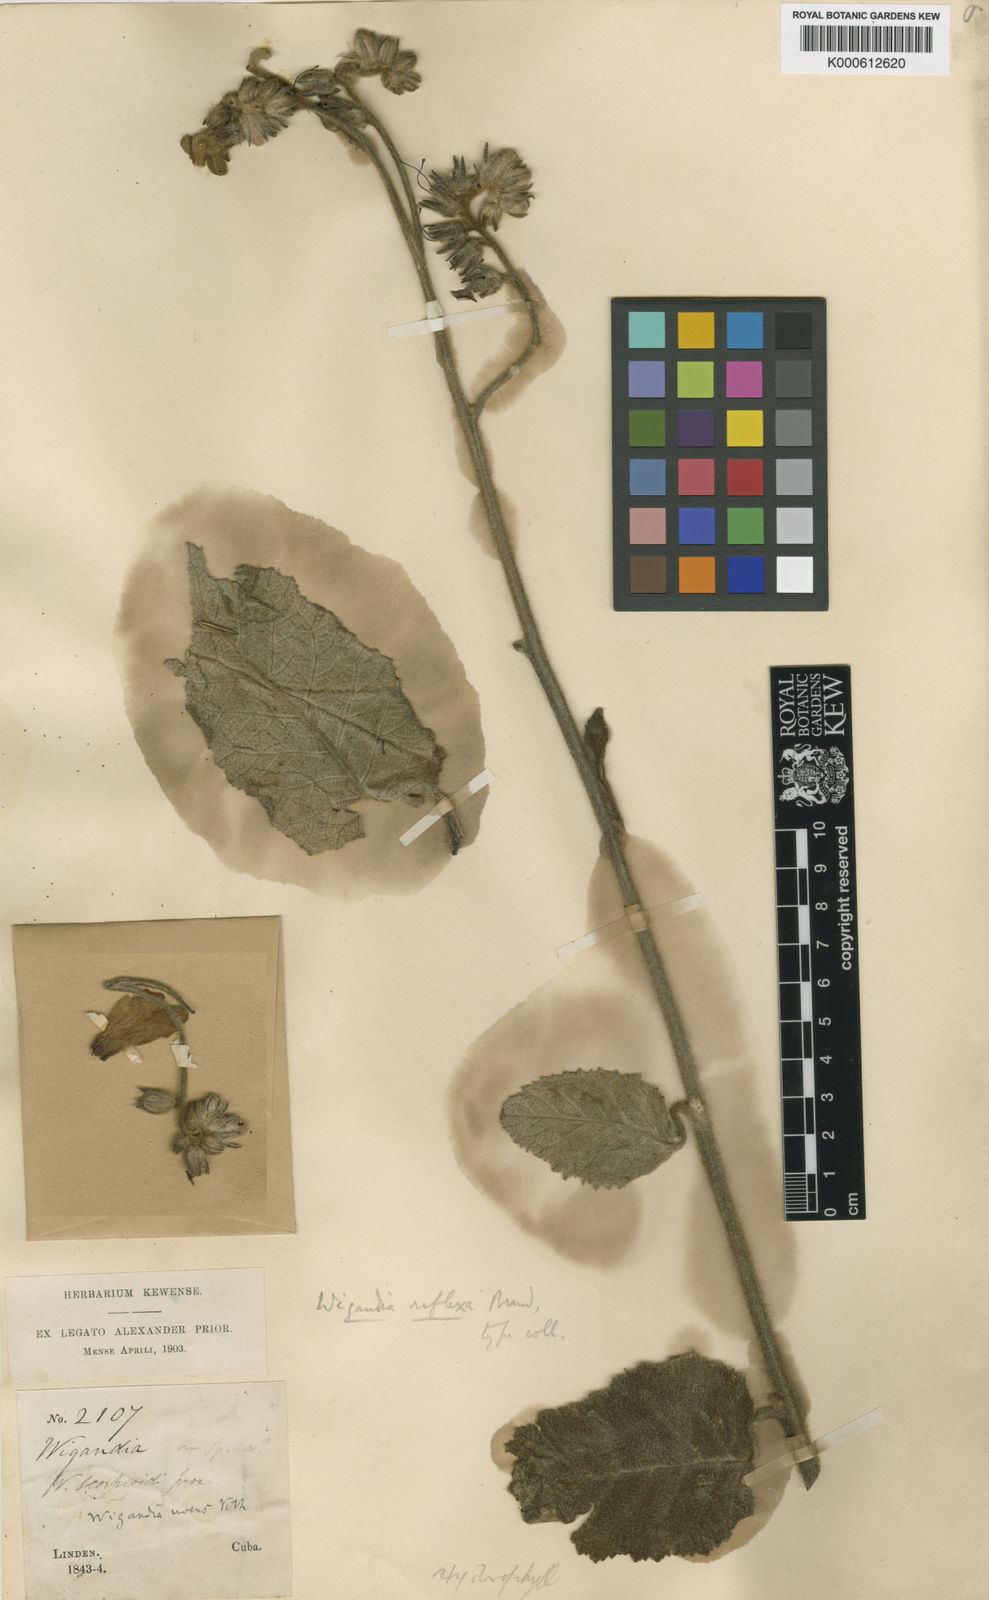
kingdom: Plantae
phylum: Tracheophyta
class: Magnoliopsida
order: Boraginales
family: Namaceae
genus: Wigandia
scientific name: Wigandia pruritiva
